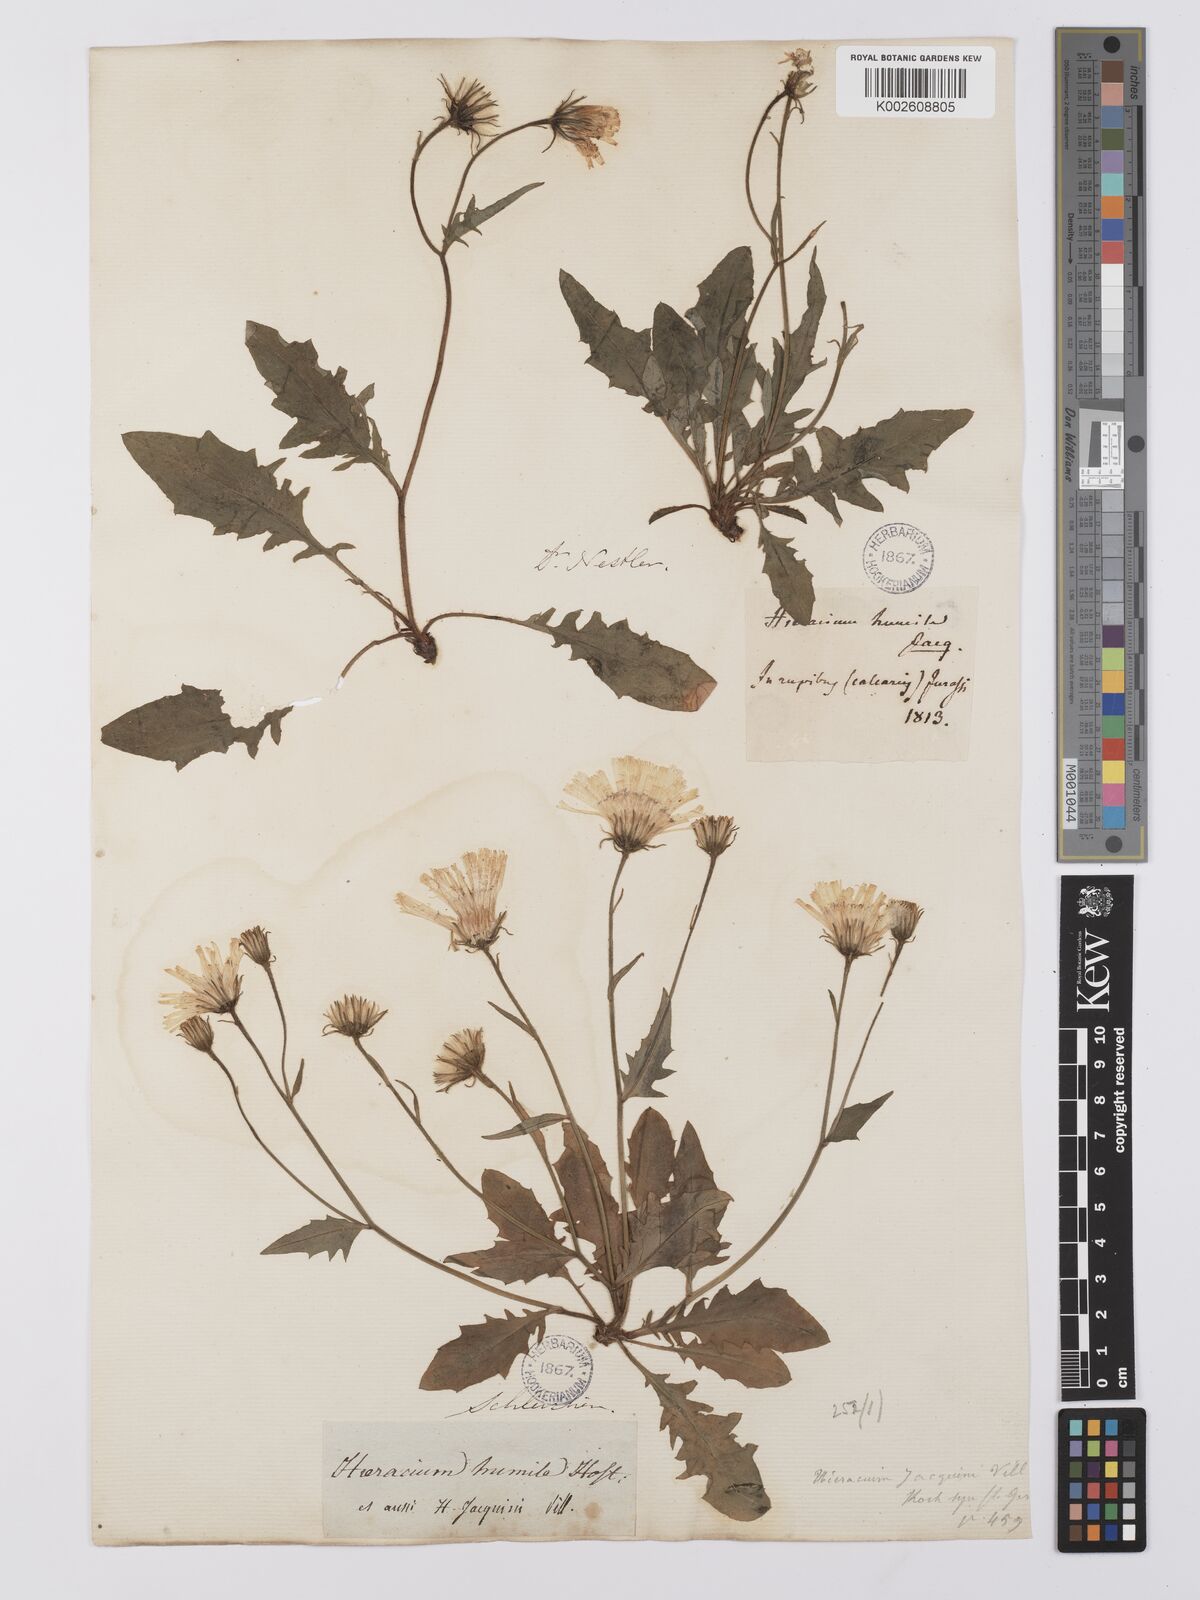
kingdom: Plantae
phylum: Tracheophyta
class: Magnoliopsida
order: Asterales
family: Asteraceae
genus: Hieracium
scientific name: Hieracium humile
